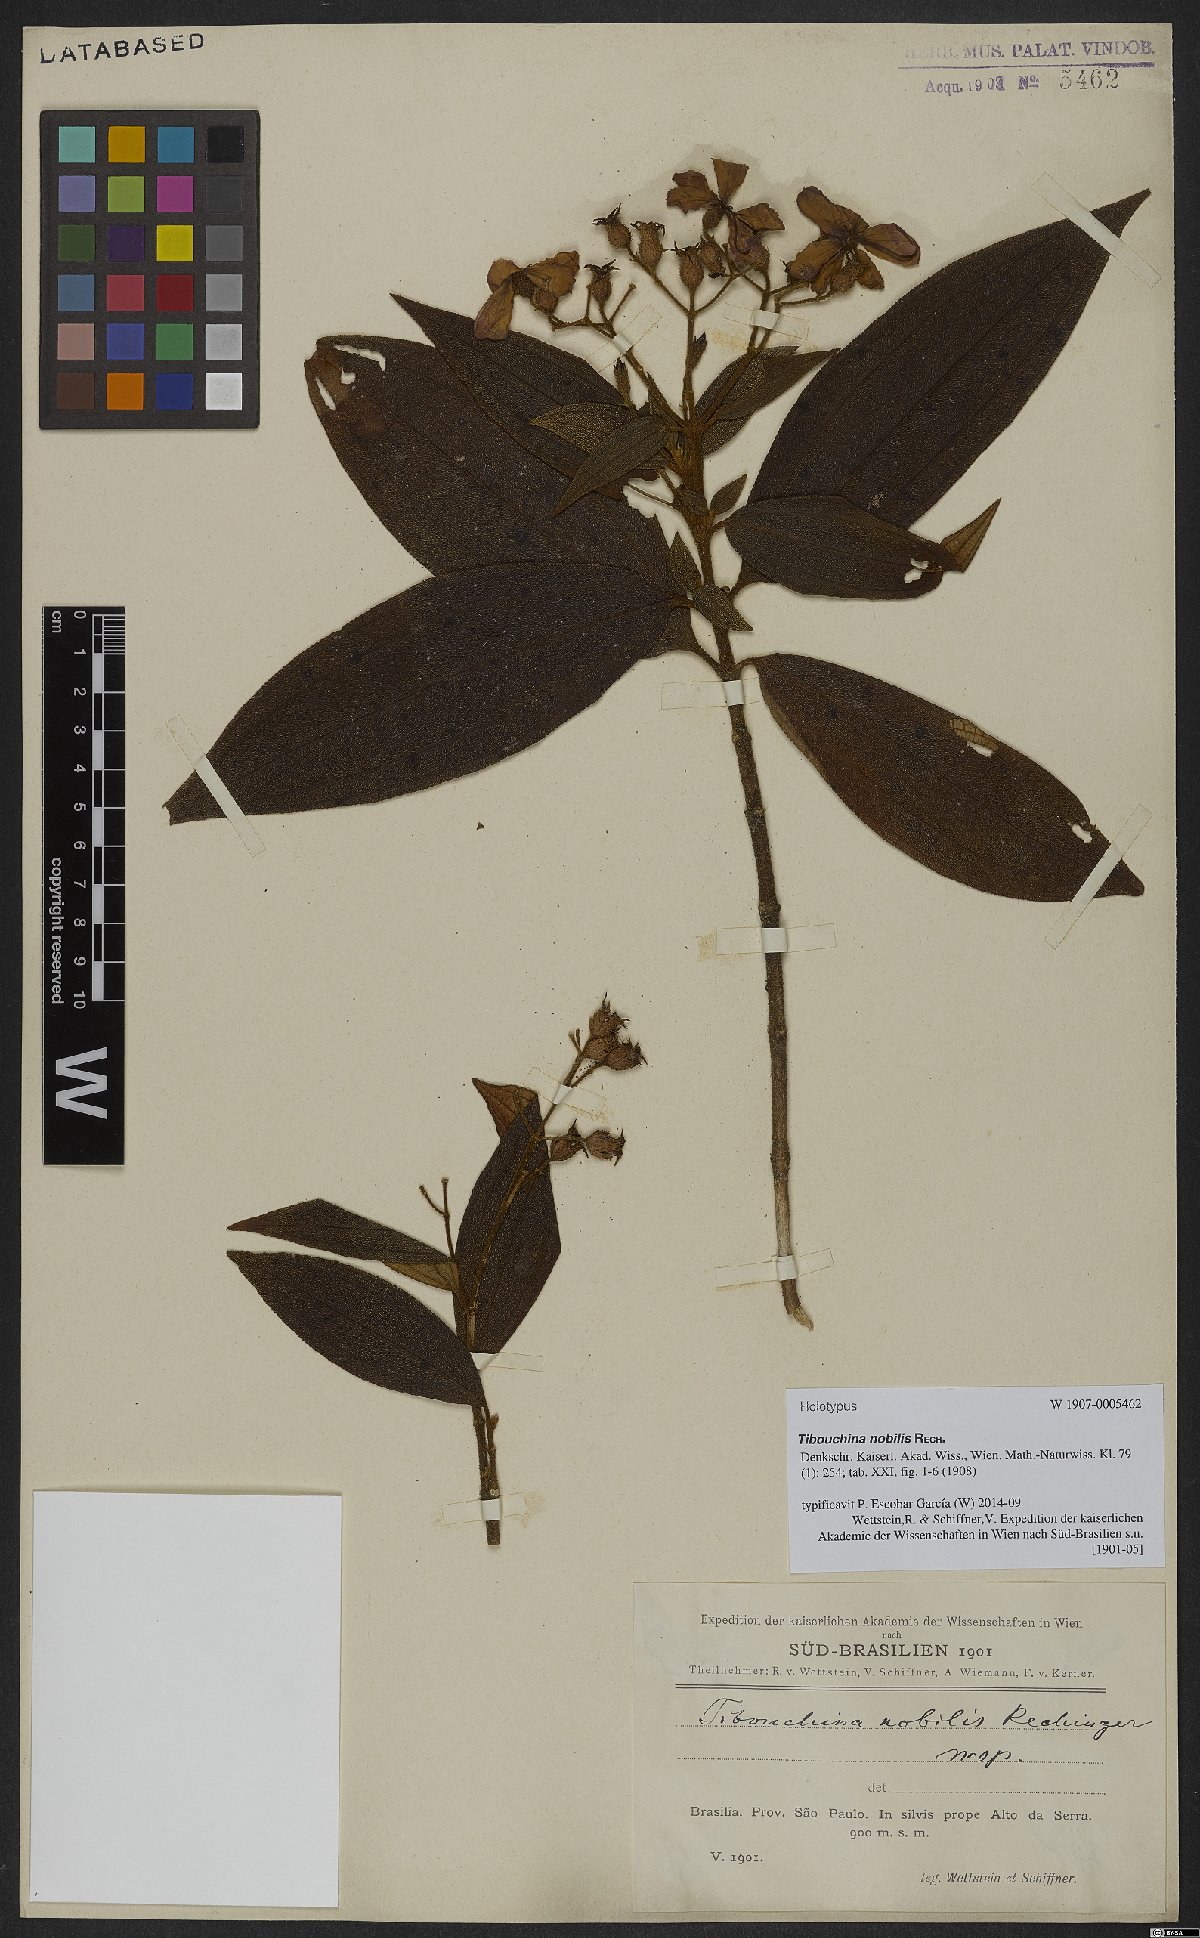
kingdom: Plantae
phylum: Tracheophyta
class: Magnoliopsida
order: Myrtales
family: Melastomataceae
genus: Pleroma
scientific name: Pleroma scaberrimum
